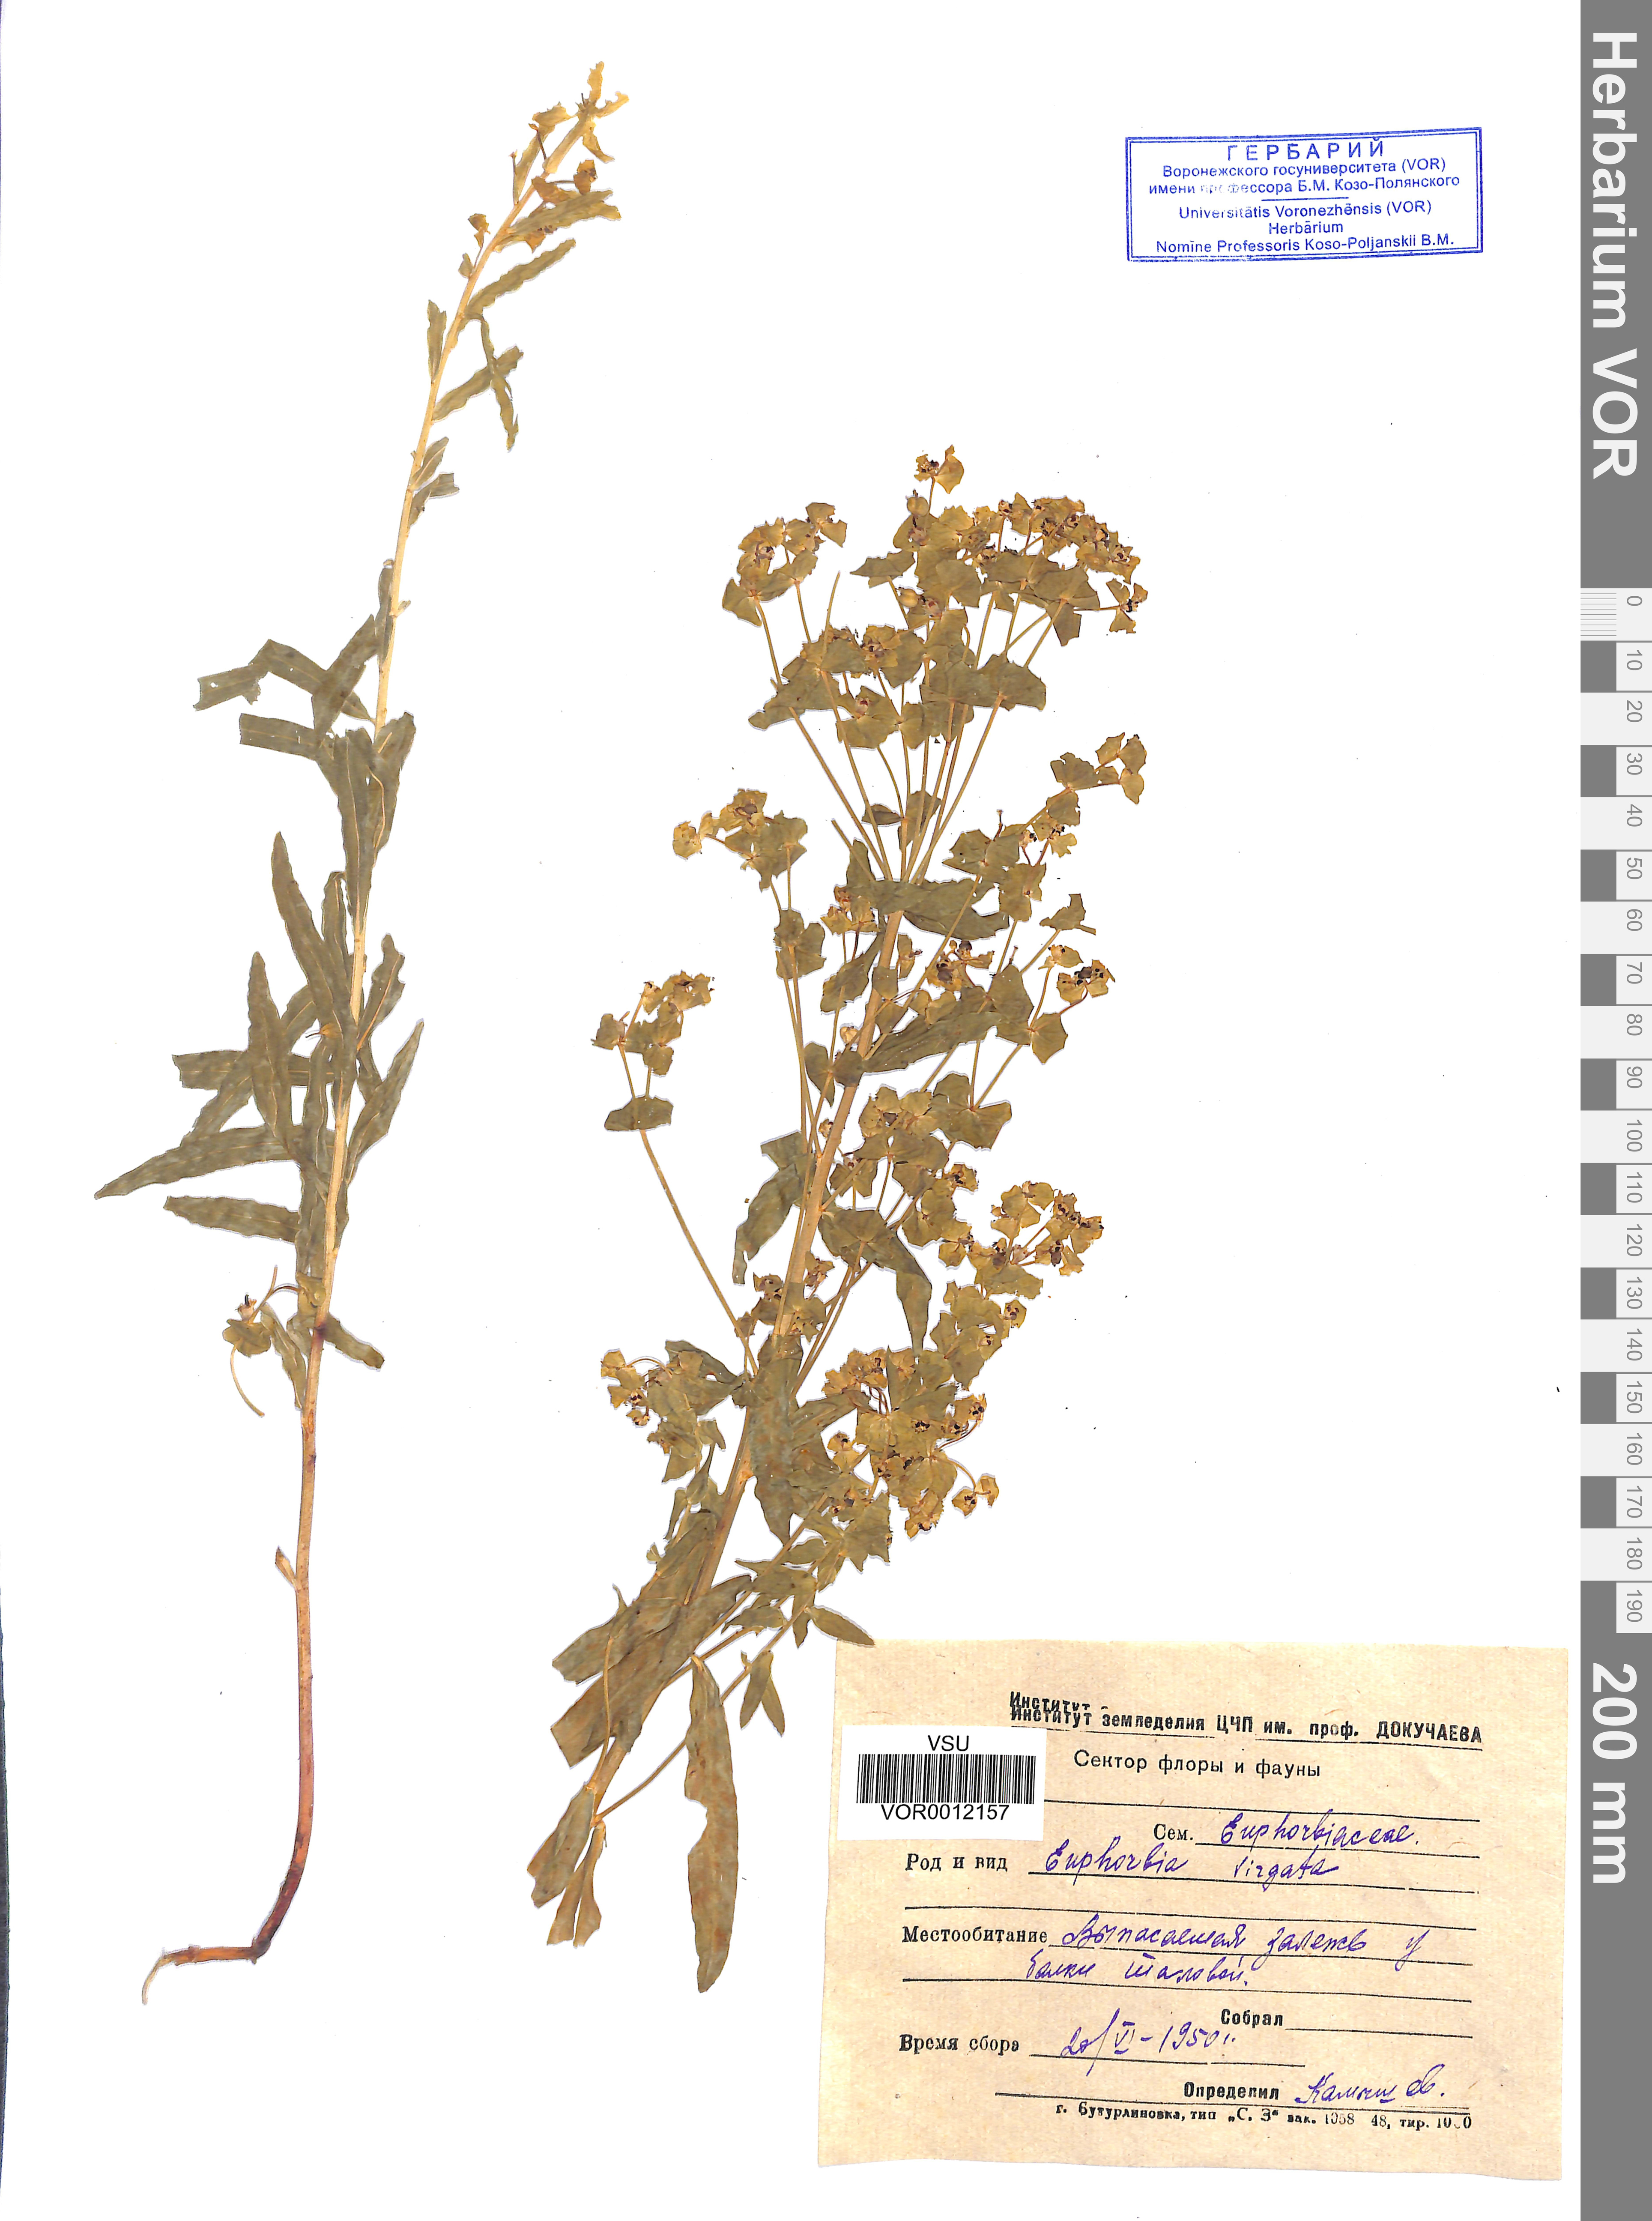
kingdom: Plantae
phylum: Tracheophyta
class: Magnoliopsida
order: Malpighiales
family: Euphorbiaceae
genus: Euphorbia
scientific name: Euphorbia virgata
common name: Leafy spurge
